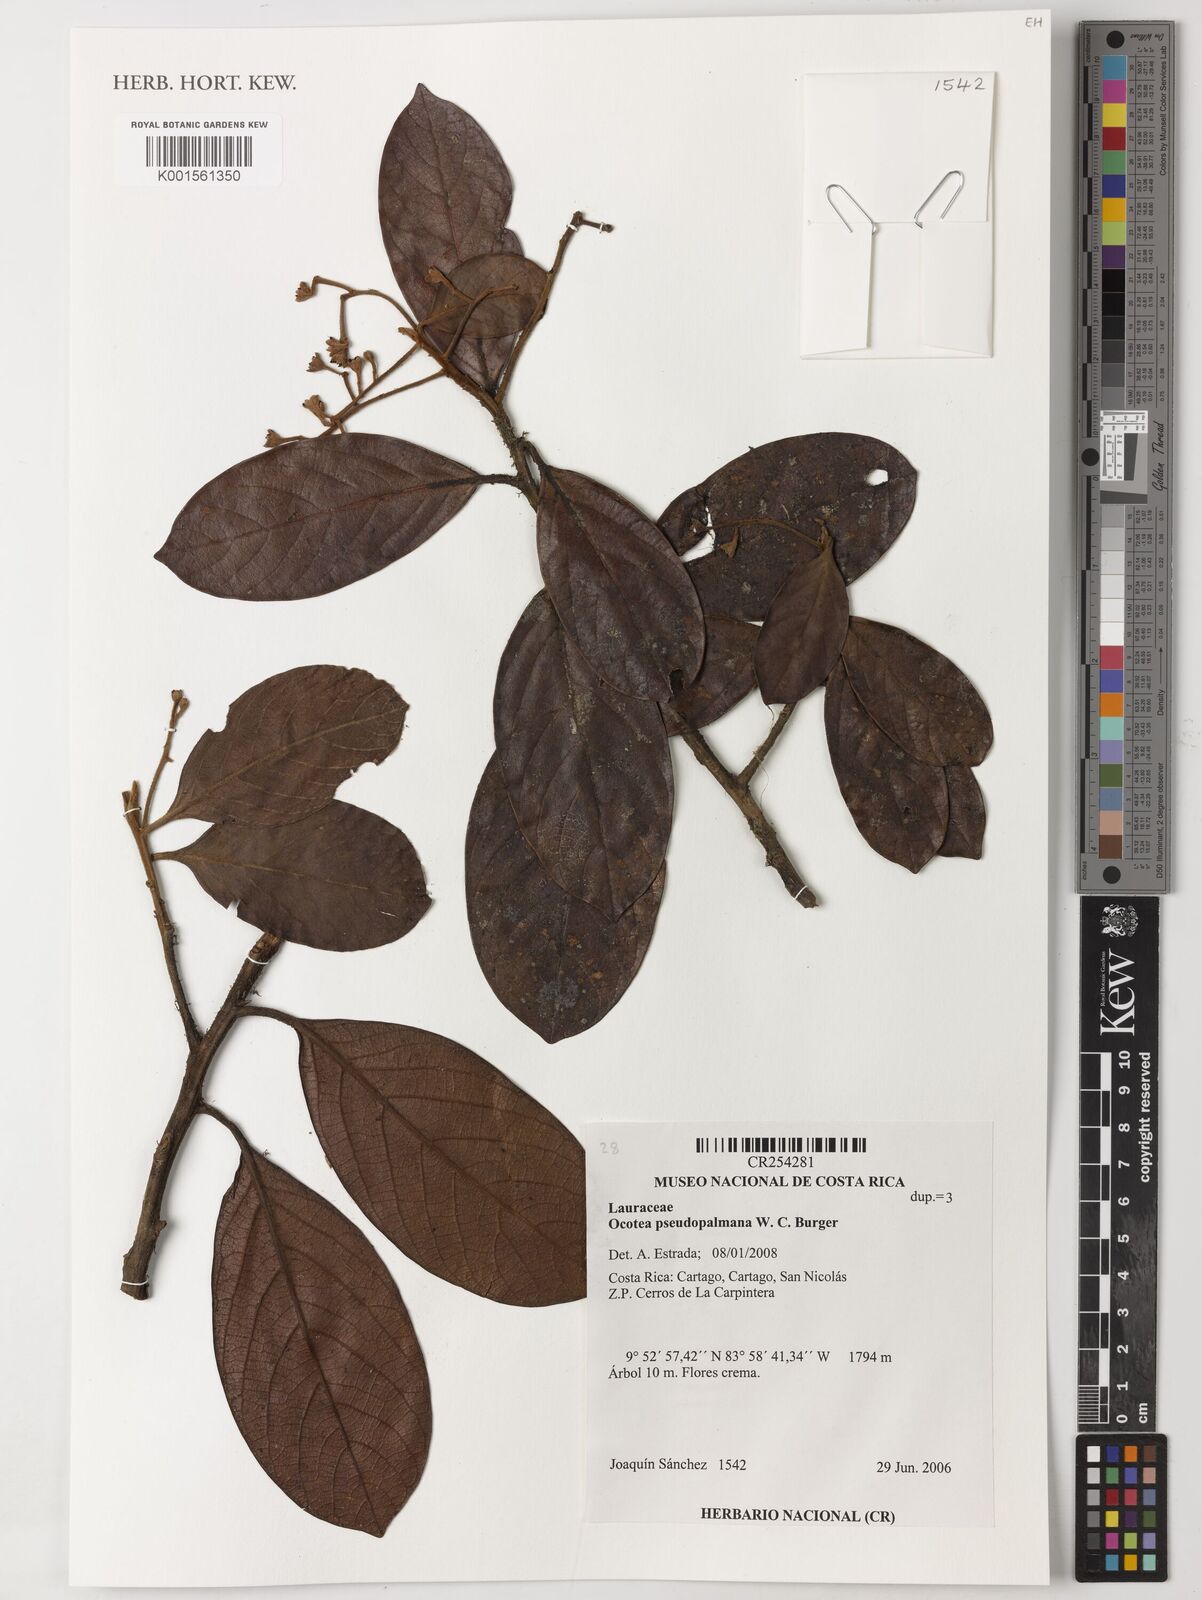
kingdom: Plantae
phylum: Tracheophyta
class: Magnoliopsida
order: Laurales
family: Lauraceae
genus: Ocotea
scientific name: Ocotea pseudopalmana
